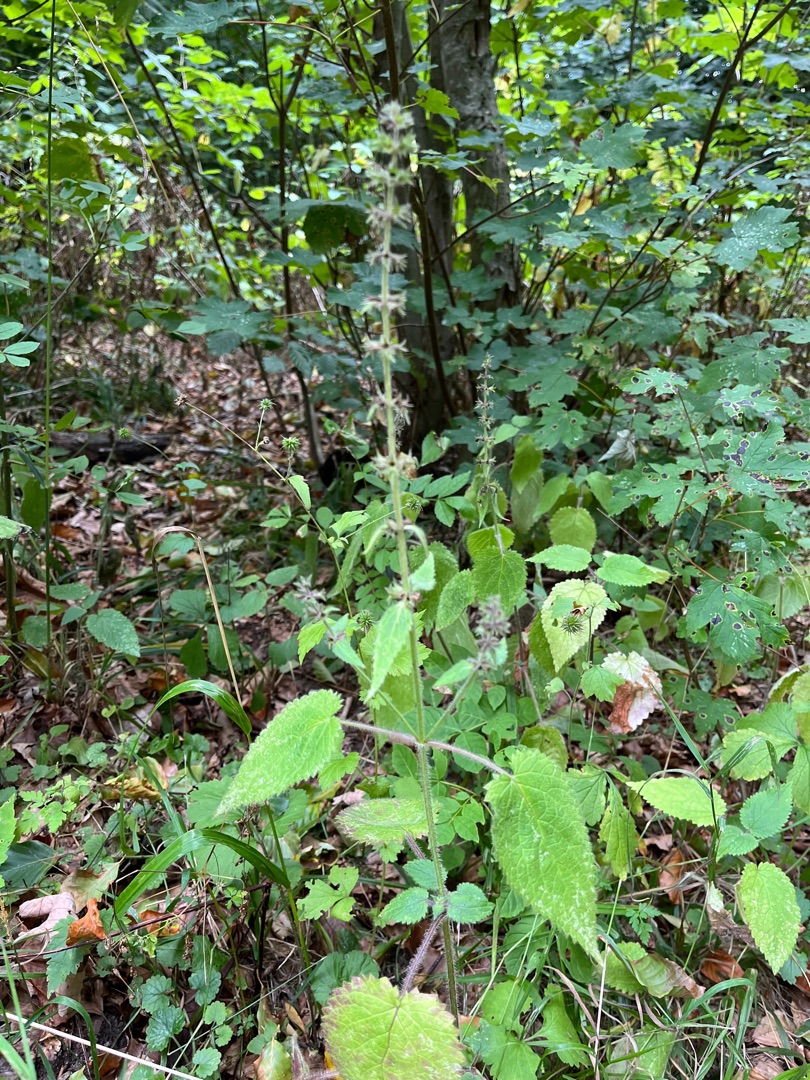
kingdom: Plantae
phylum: Tracheophyta
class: Magnoliopsida
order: Lamiales
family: Lamiaceae
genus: Stachys
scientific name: Stachys sylvatica
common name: Skov-galtetand
